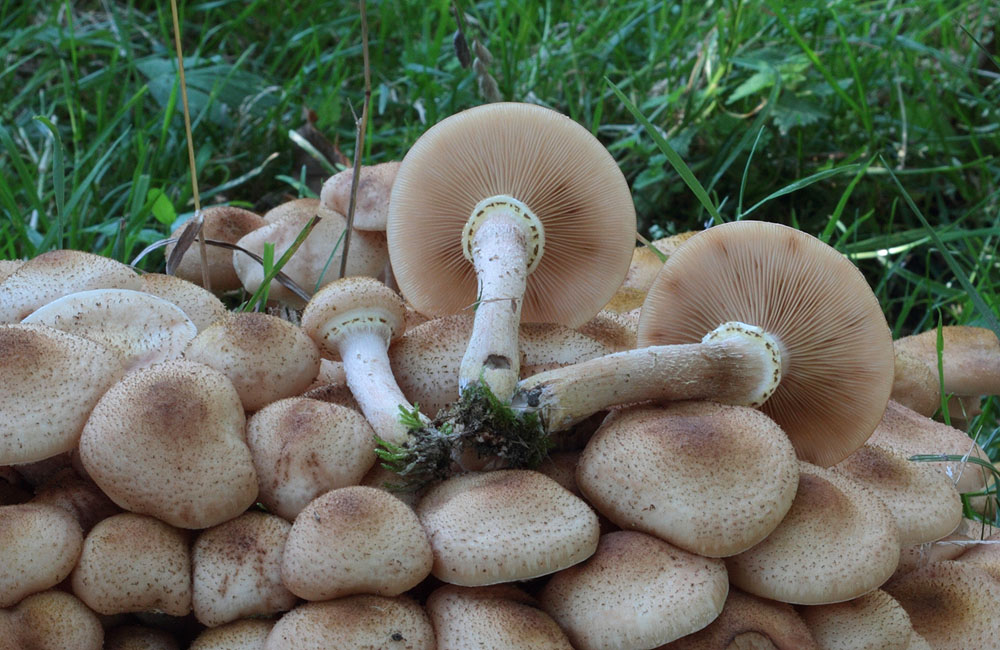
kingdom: Fungi
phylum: Basidiomycota
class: Agaricomycetes
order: Agaricales
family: Physalacriaceae
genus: Armillaria
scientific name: Armillaria ostoyae
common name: mørk honningsvamp
